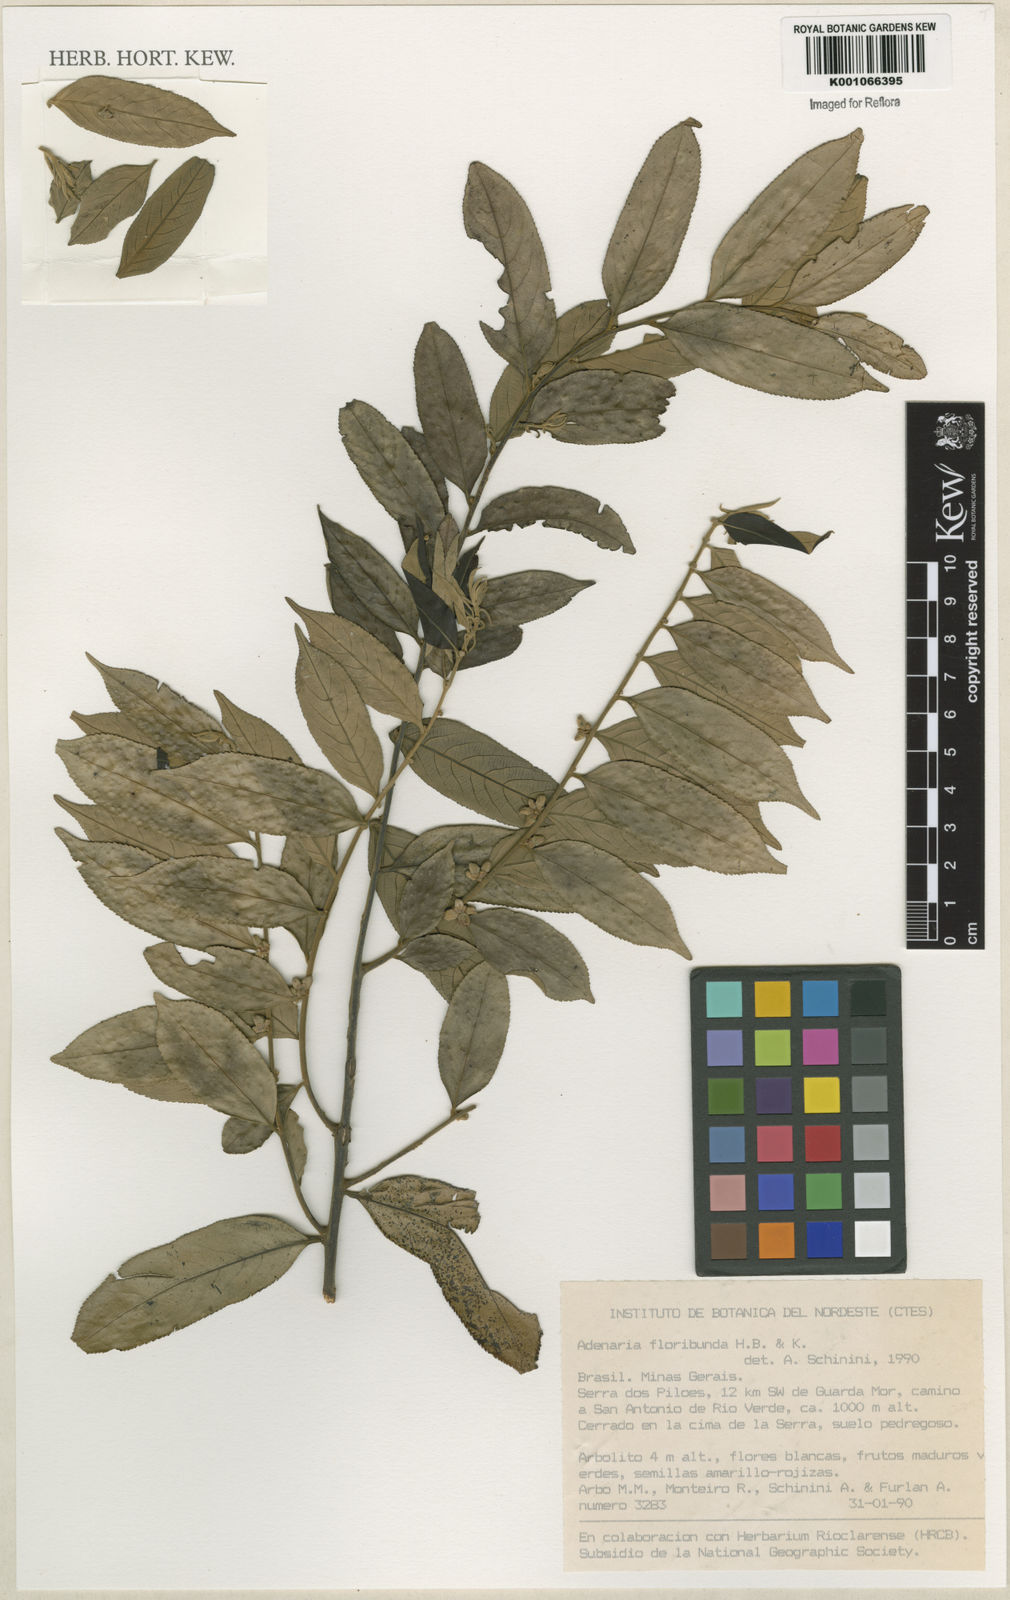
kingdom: Plantae
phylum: Tracheophyta
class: Magnoliopsida
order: Myrtales
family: Lythraceae
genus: Adenaria
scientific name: Adenaria floribunda
